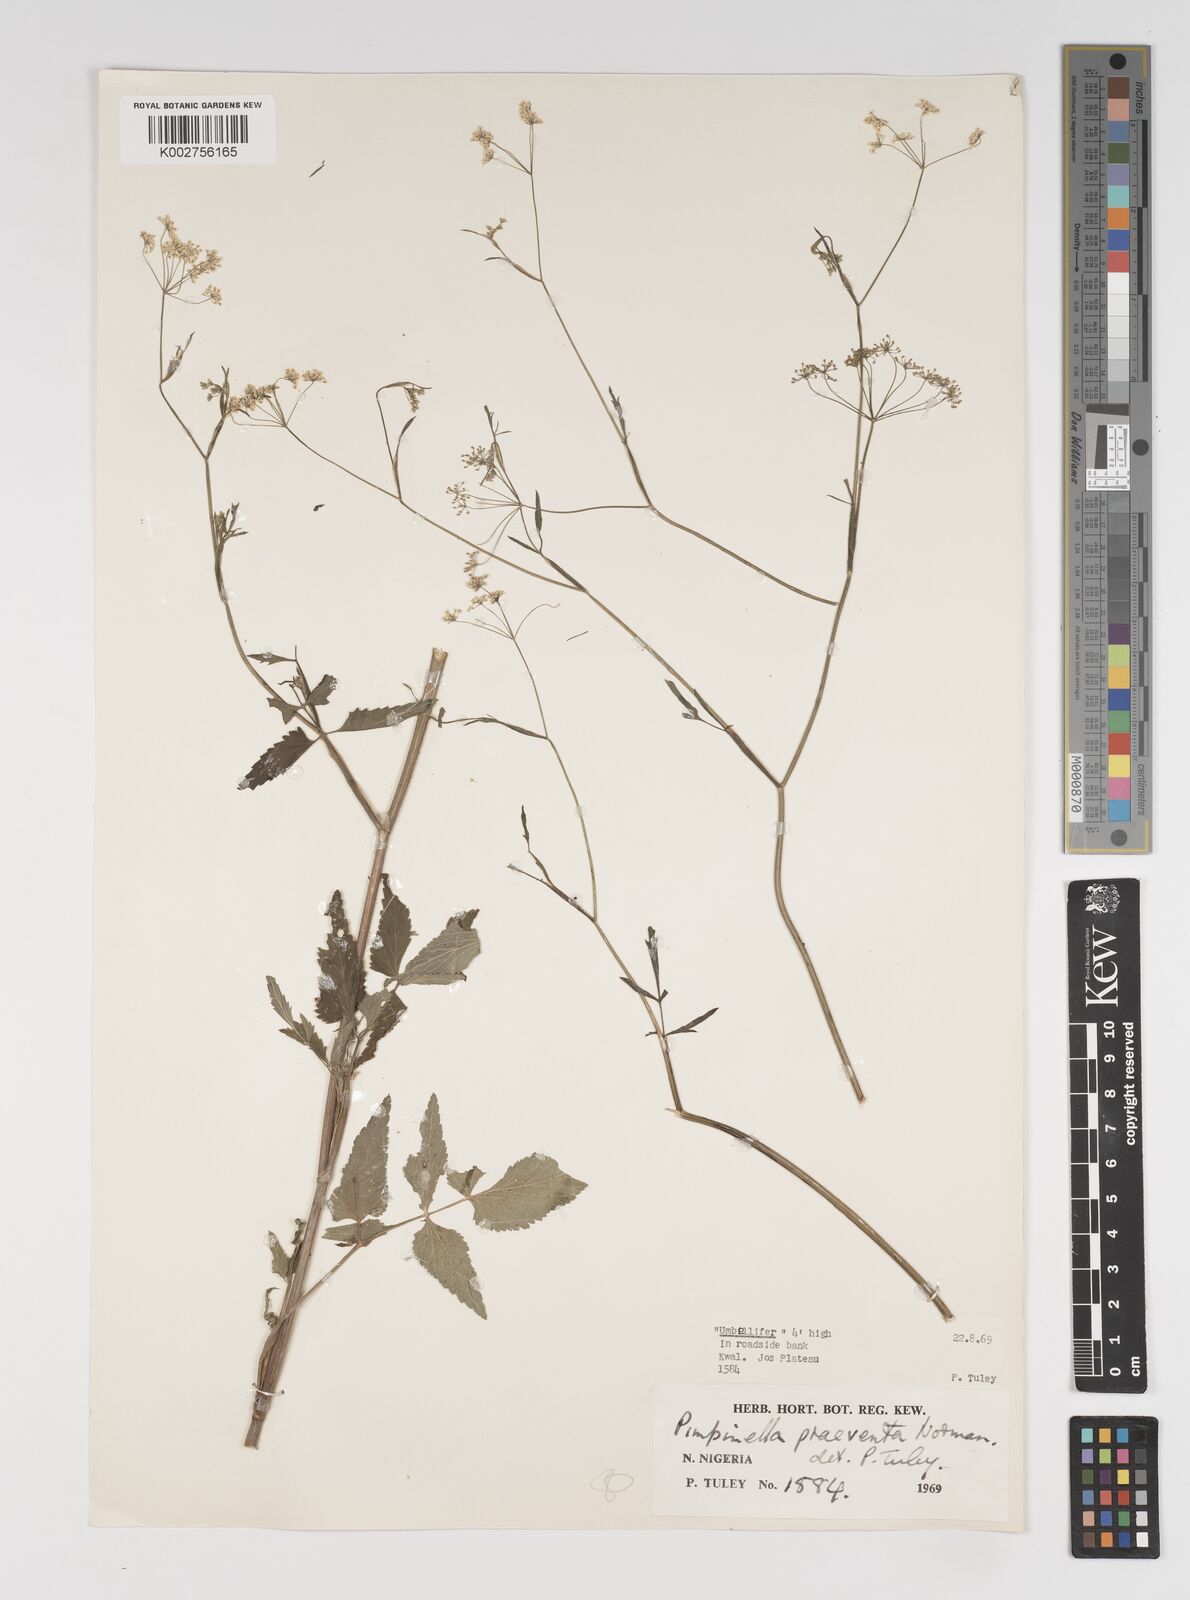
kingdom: Plantae
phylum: Tracheophyta
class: Magnoliopsida
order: Apiales
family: Apiaceae
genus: Pimpinella
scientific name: Pimpinella hirtella
